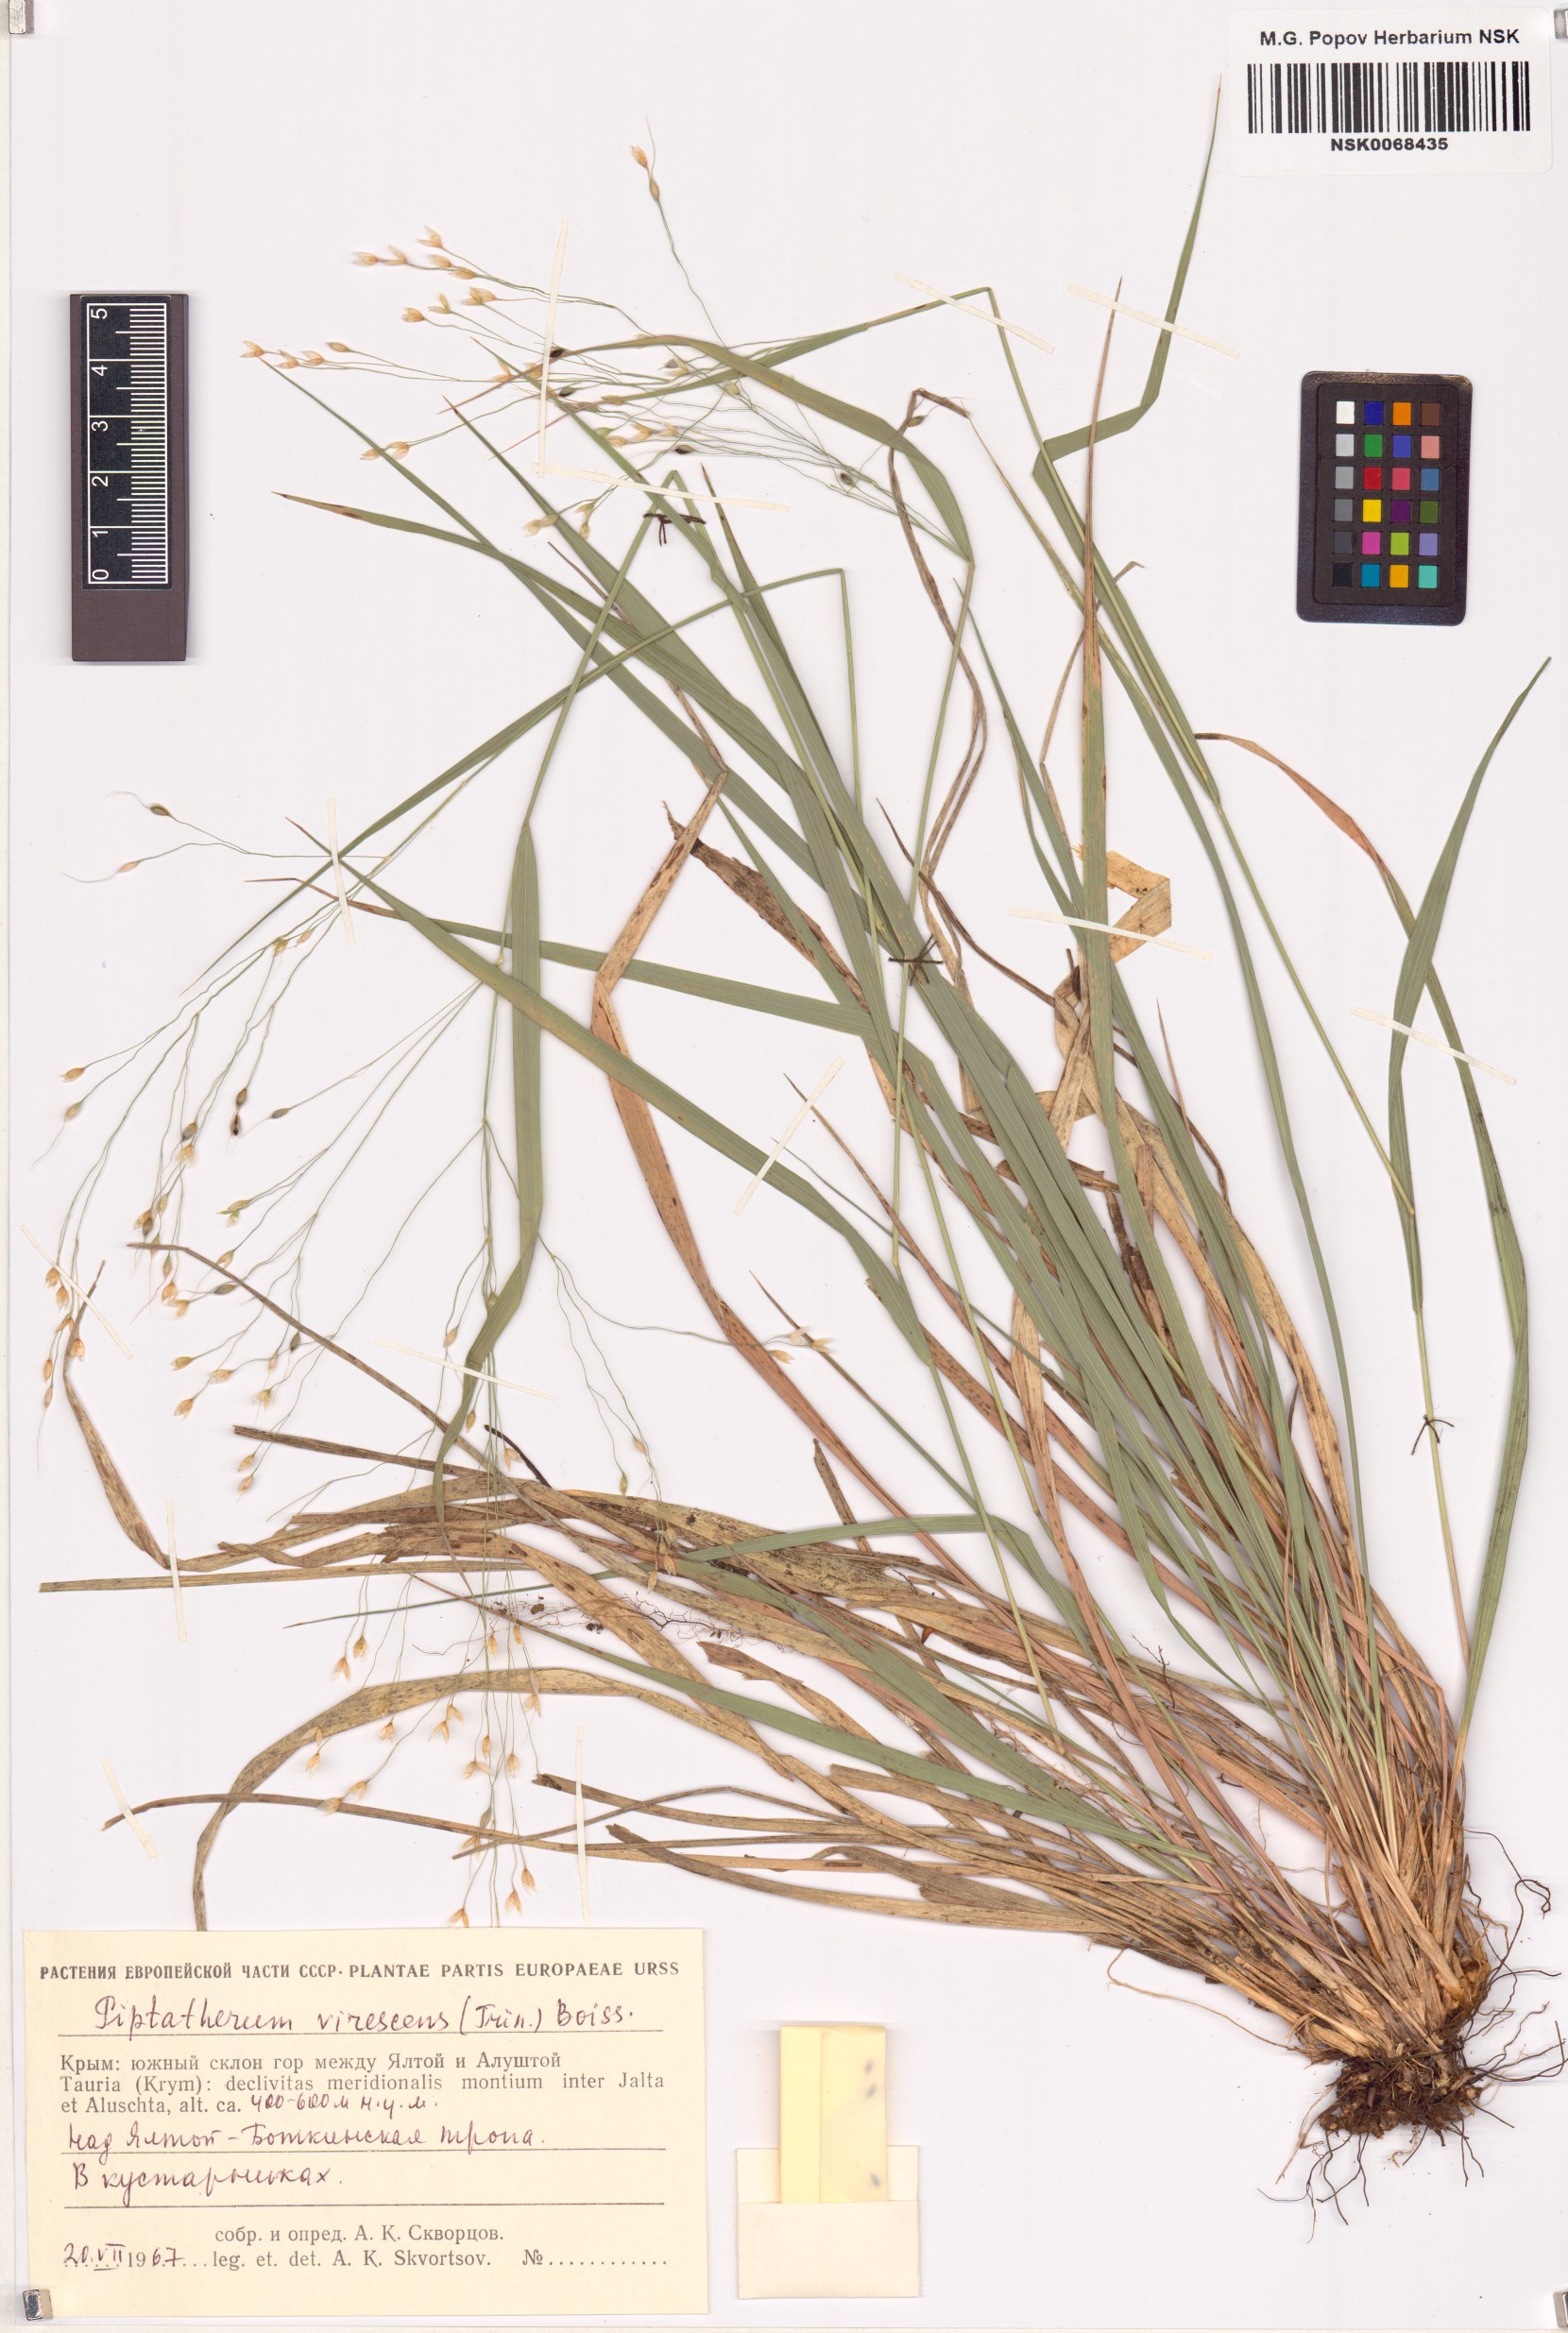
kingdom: Plantae
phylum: Tracheophyta
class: Liliopsida
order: Poales
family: Poaceae
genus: Achnatherum
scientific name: Achnatherum virescens
